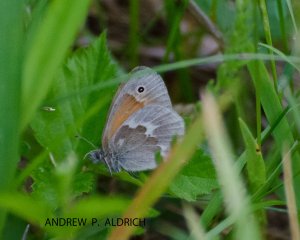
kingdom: Animalia
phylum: Arthropoda
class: Insecta
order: Lepidoptera
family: Nymphalidae
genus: Coenonympha
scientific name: Coenonympha tullia
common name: Large Heath
